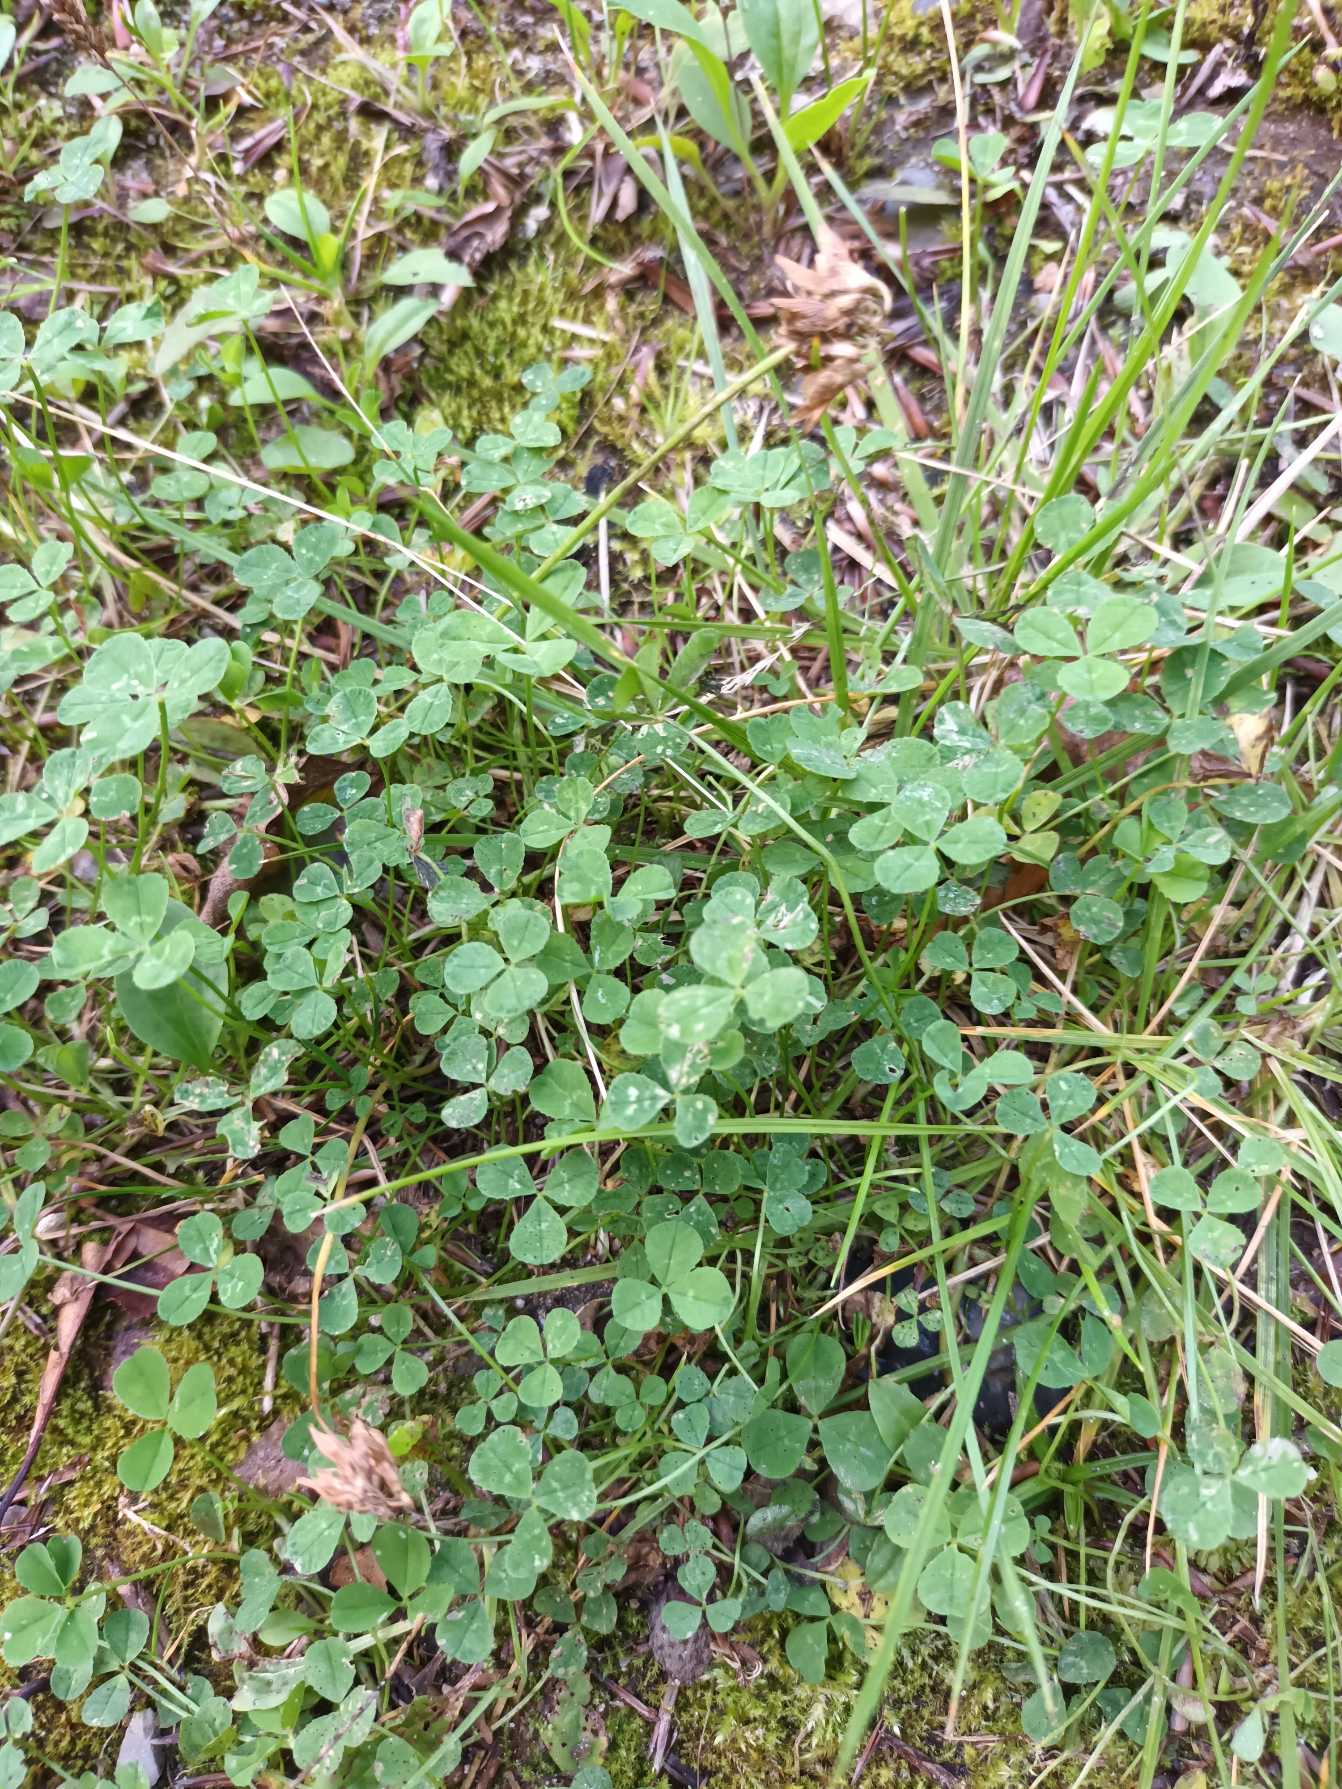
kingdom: Plantae
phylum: Tracheophyta
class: Magnoliopsida
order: Fabales
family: Fabaceae
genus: Trifolium
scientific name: Trifolium repens
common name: Hvid-kløver
